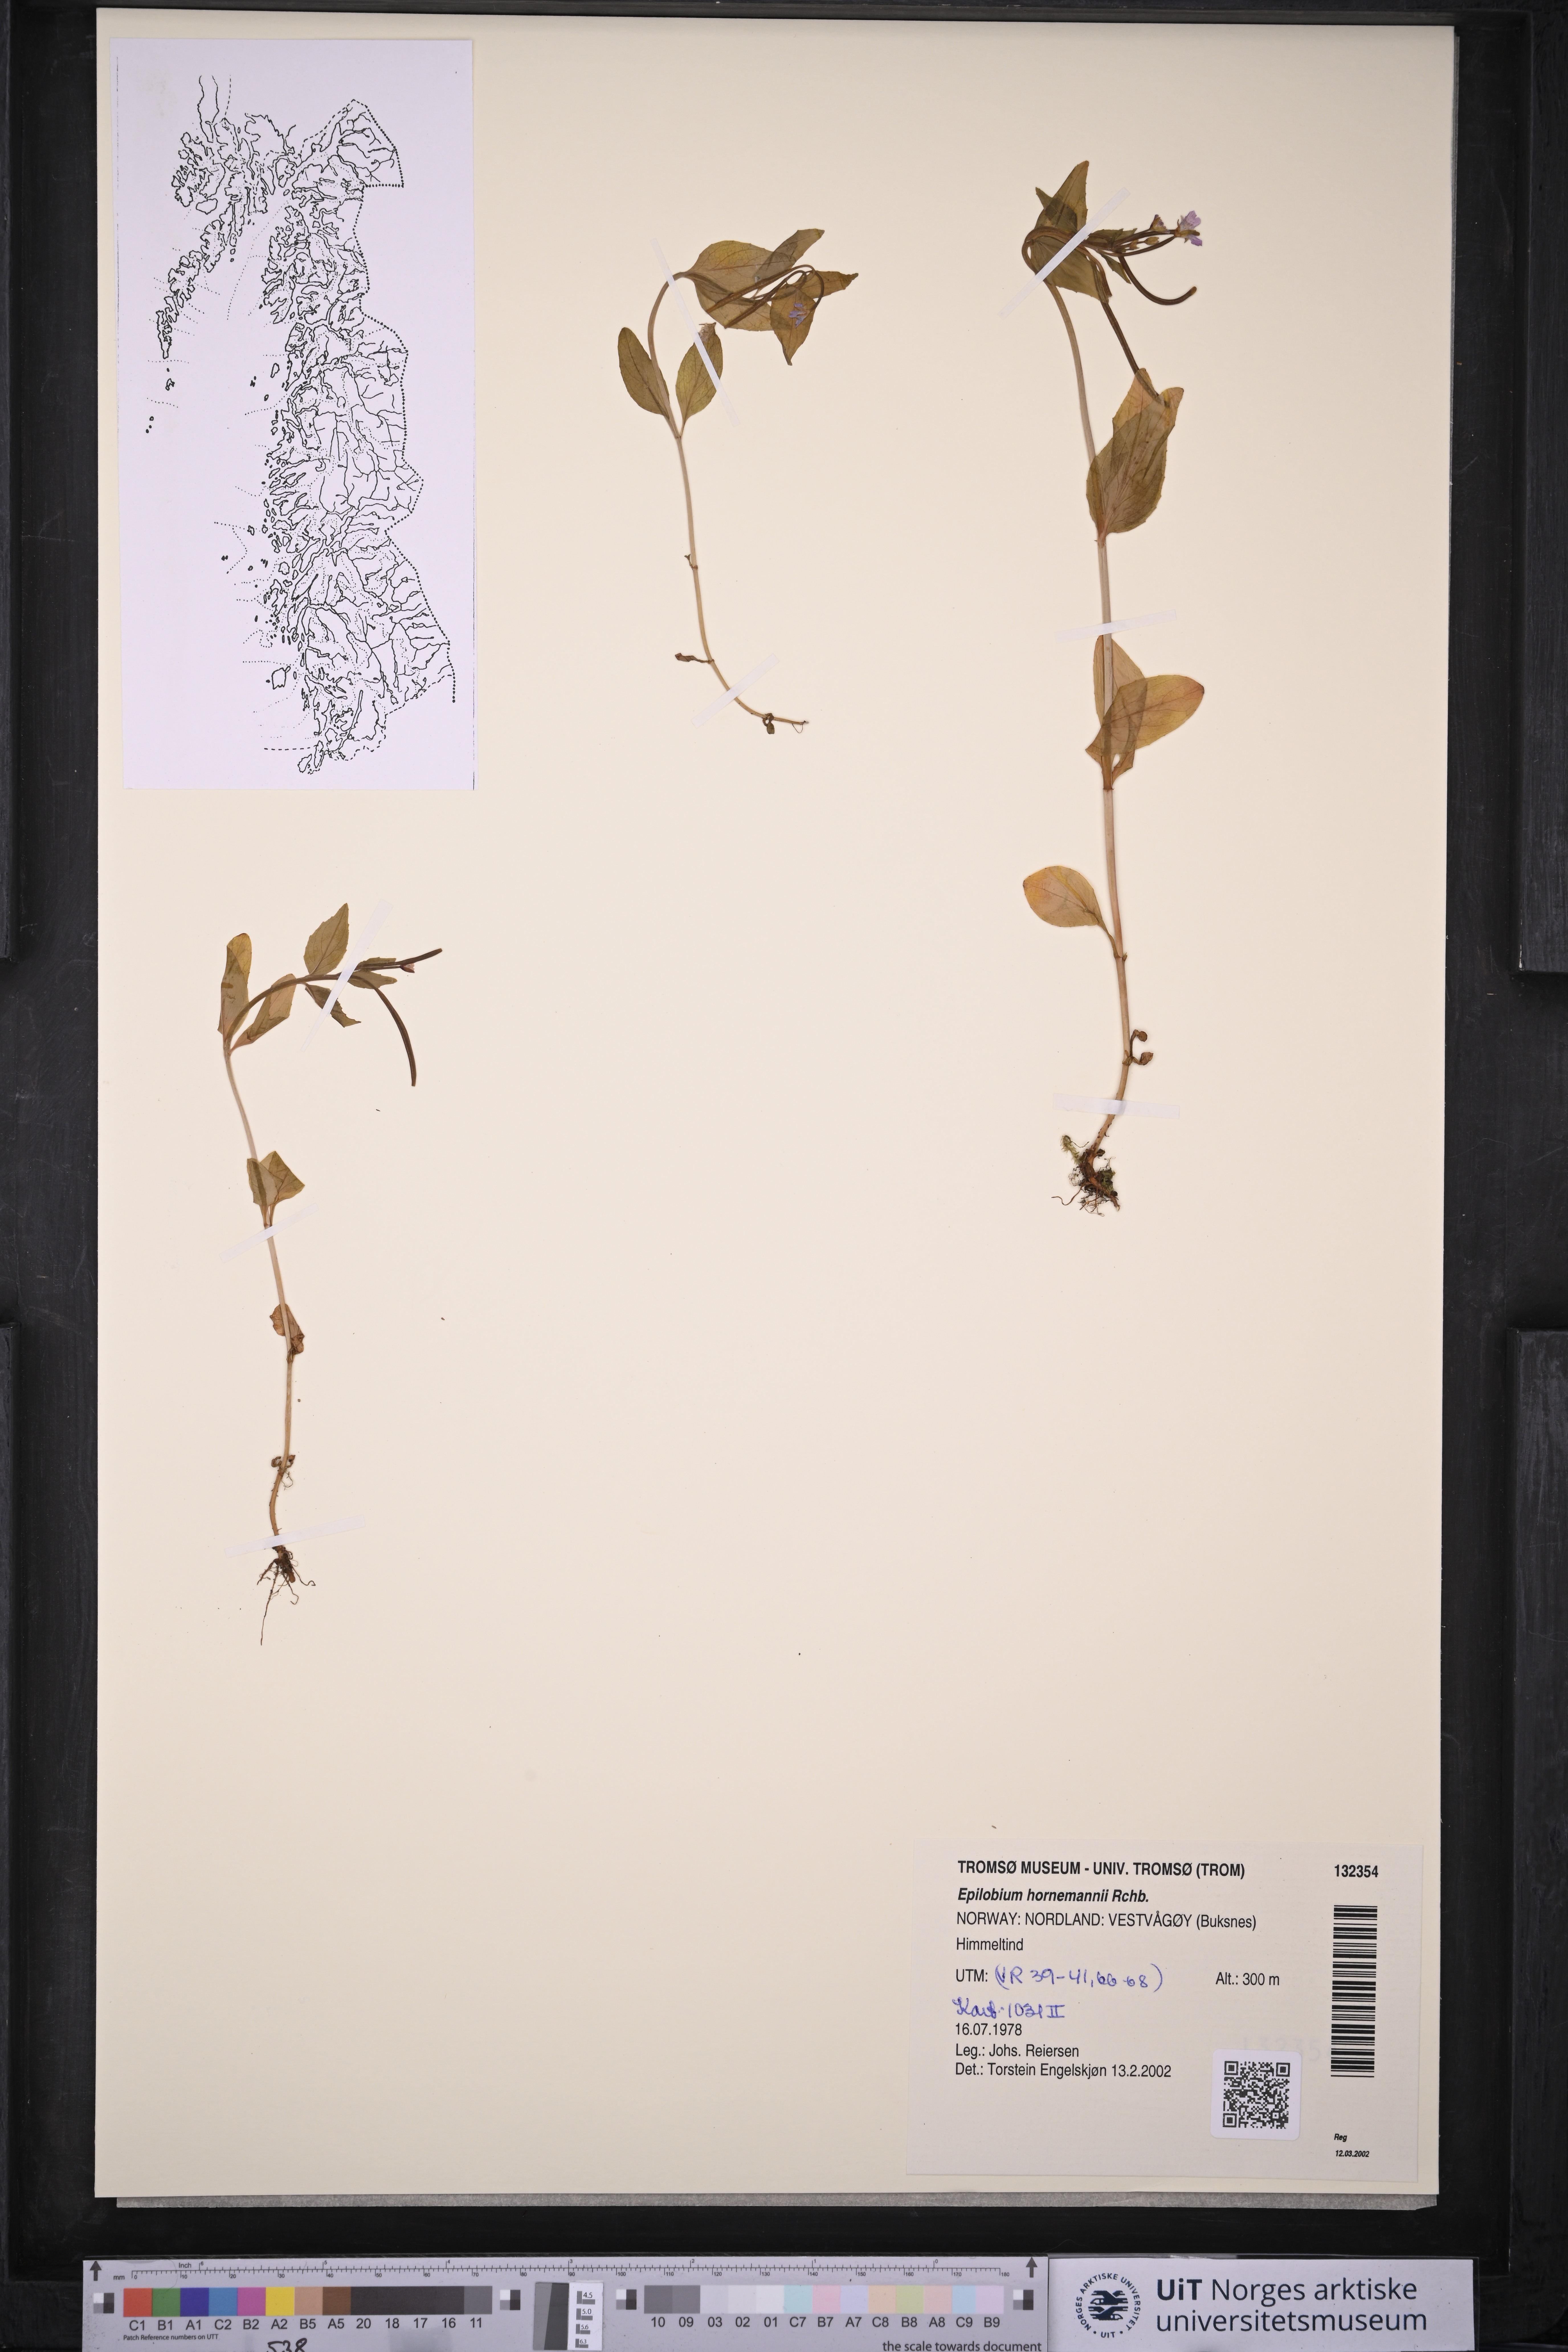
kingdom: Plantae
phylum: Tracheophyta
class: Magnoliopsida
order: Myrtales
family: Onagraceae
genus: Epilobium
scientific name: Epilobium hornemannii
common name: Hornemann's willowherb
